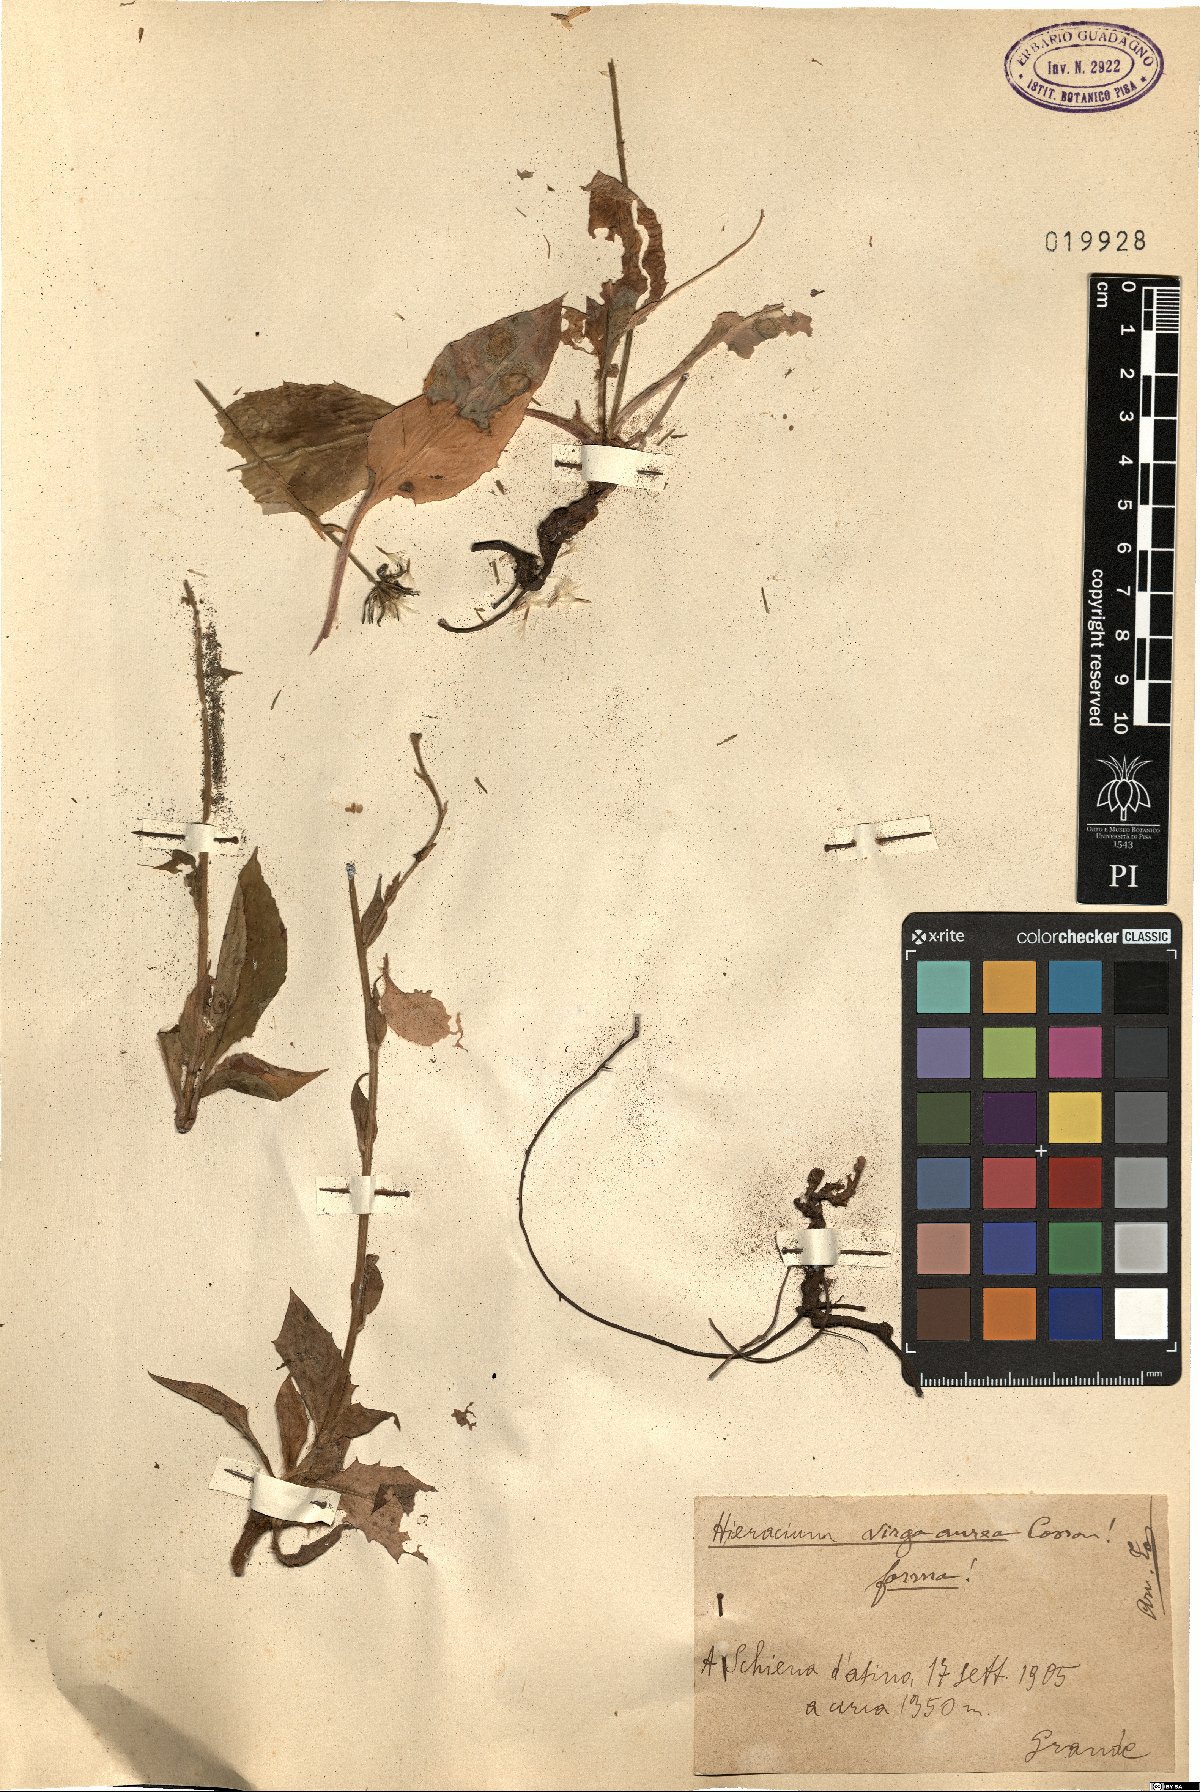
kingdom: Plantae
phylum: Tracheophyta
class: Magnoliopsida
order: Asterales
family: Asteraceae
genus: Hieracium
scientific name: Hieracium racemosum
